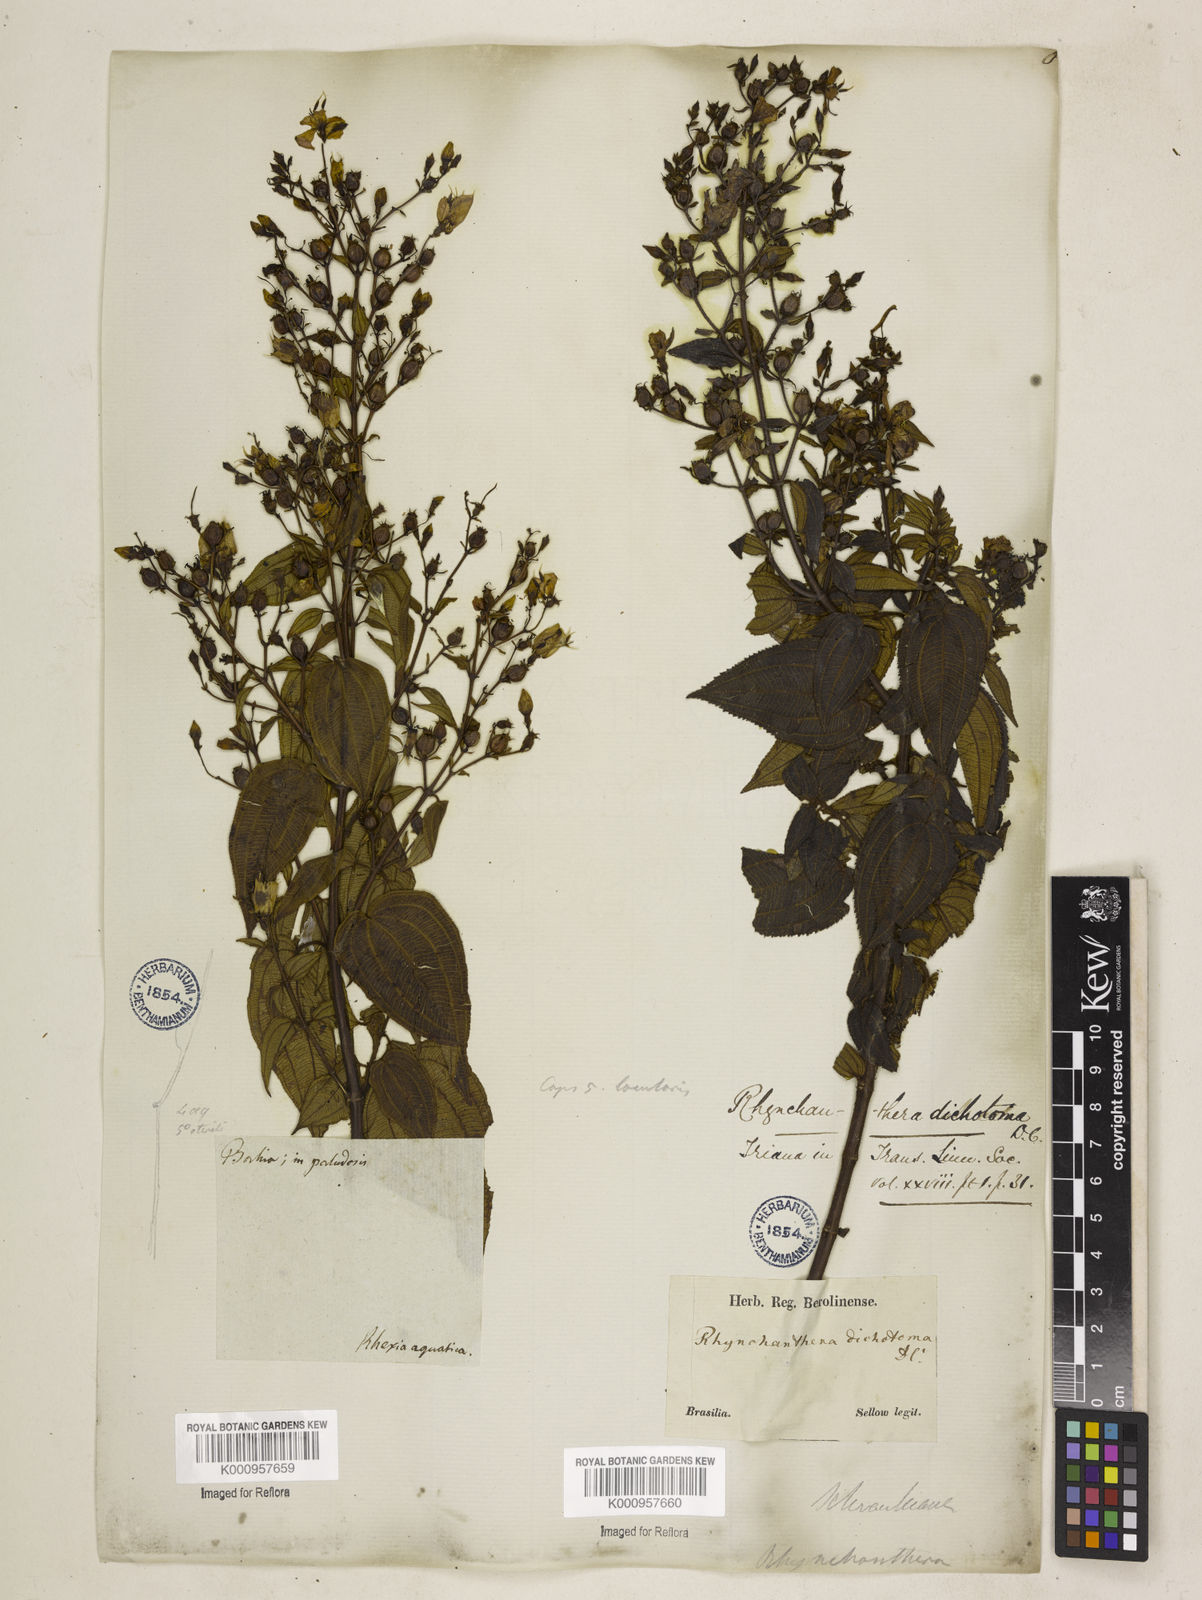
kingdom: Plantae
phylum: Tracheophyta
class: Magnoliopsida
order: Myrtales
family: Melastomataceae
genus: Rhynchanthera
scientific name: Rhynchanthera dichotoma
